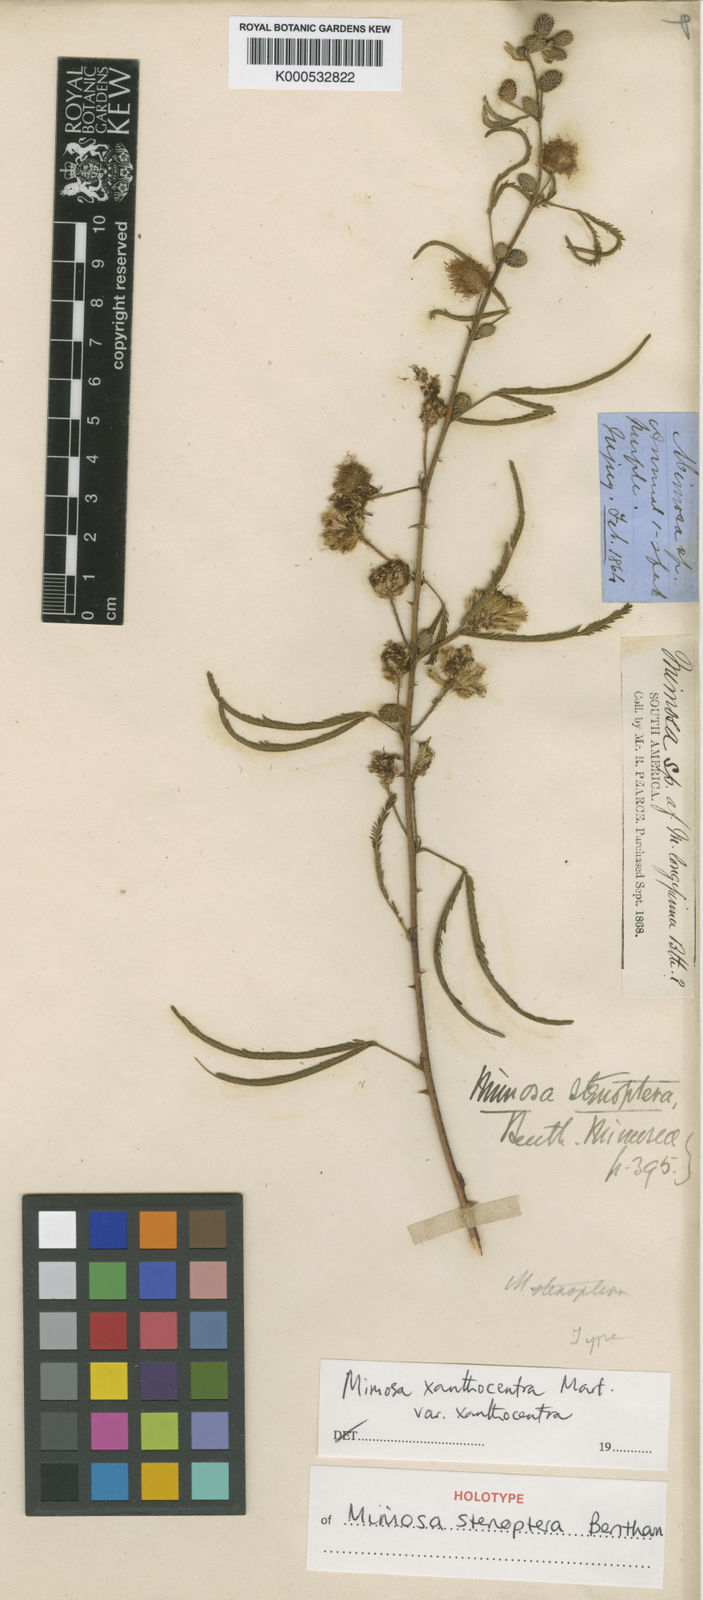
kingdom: Plantae
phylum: Tracheophyta
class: Magnoliopsida
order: Fabales
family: Fabaceae
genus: Mimosa
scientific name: Mimosa xanthocentra
